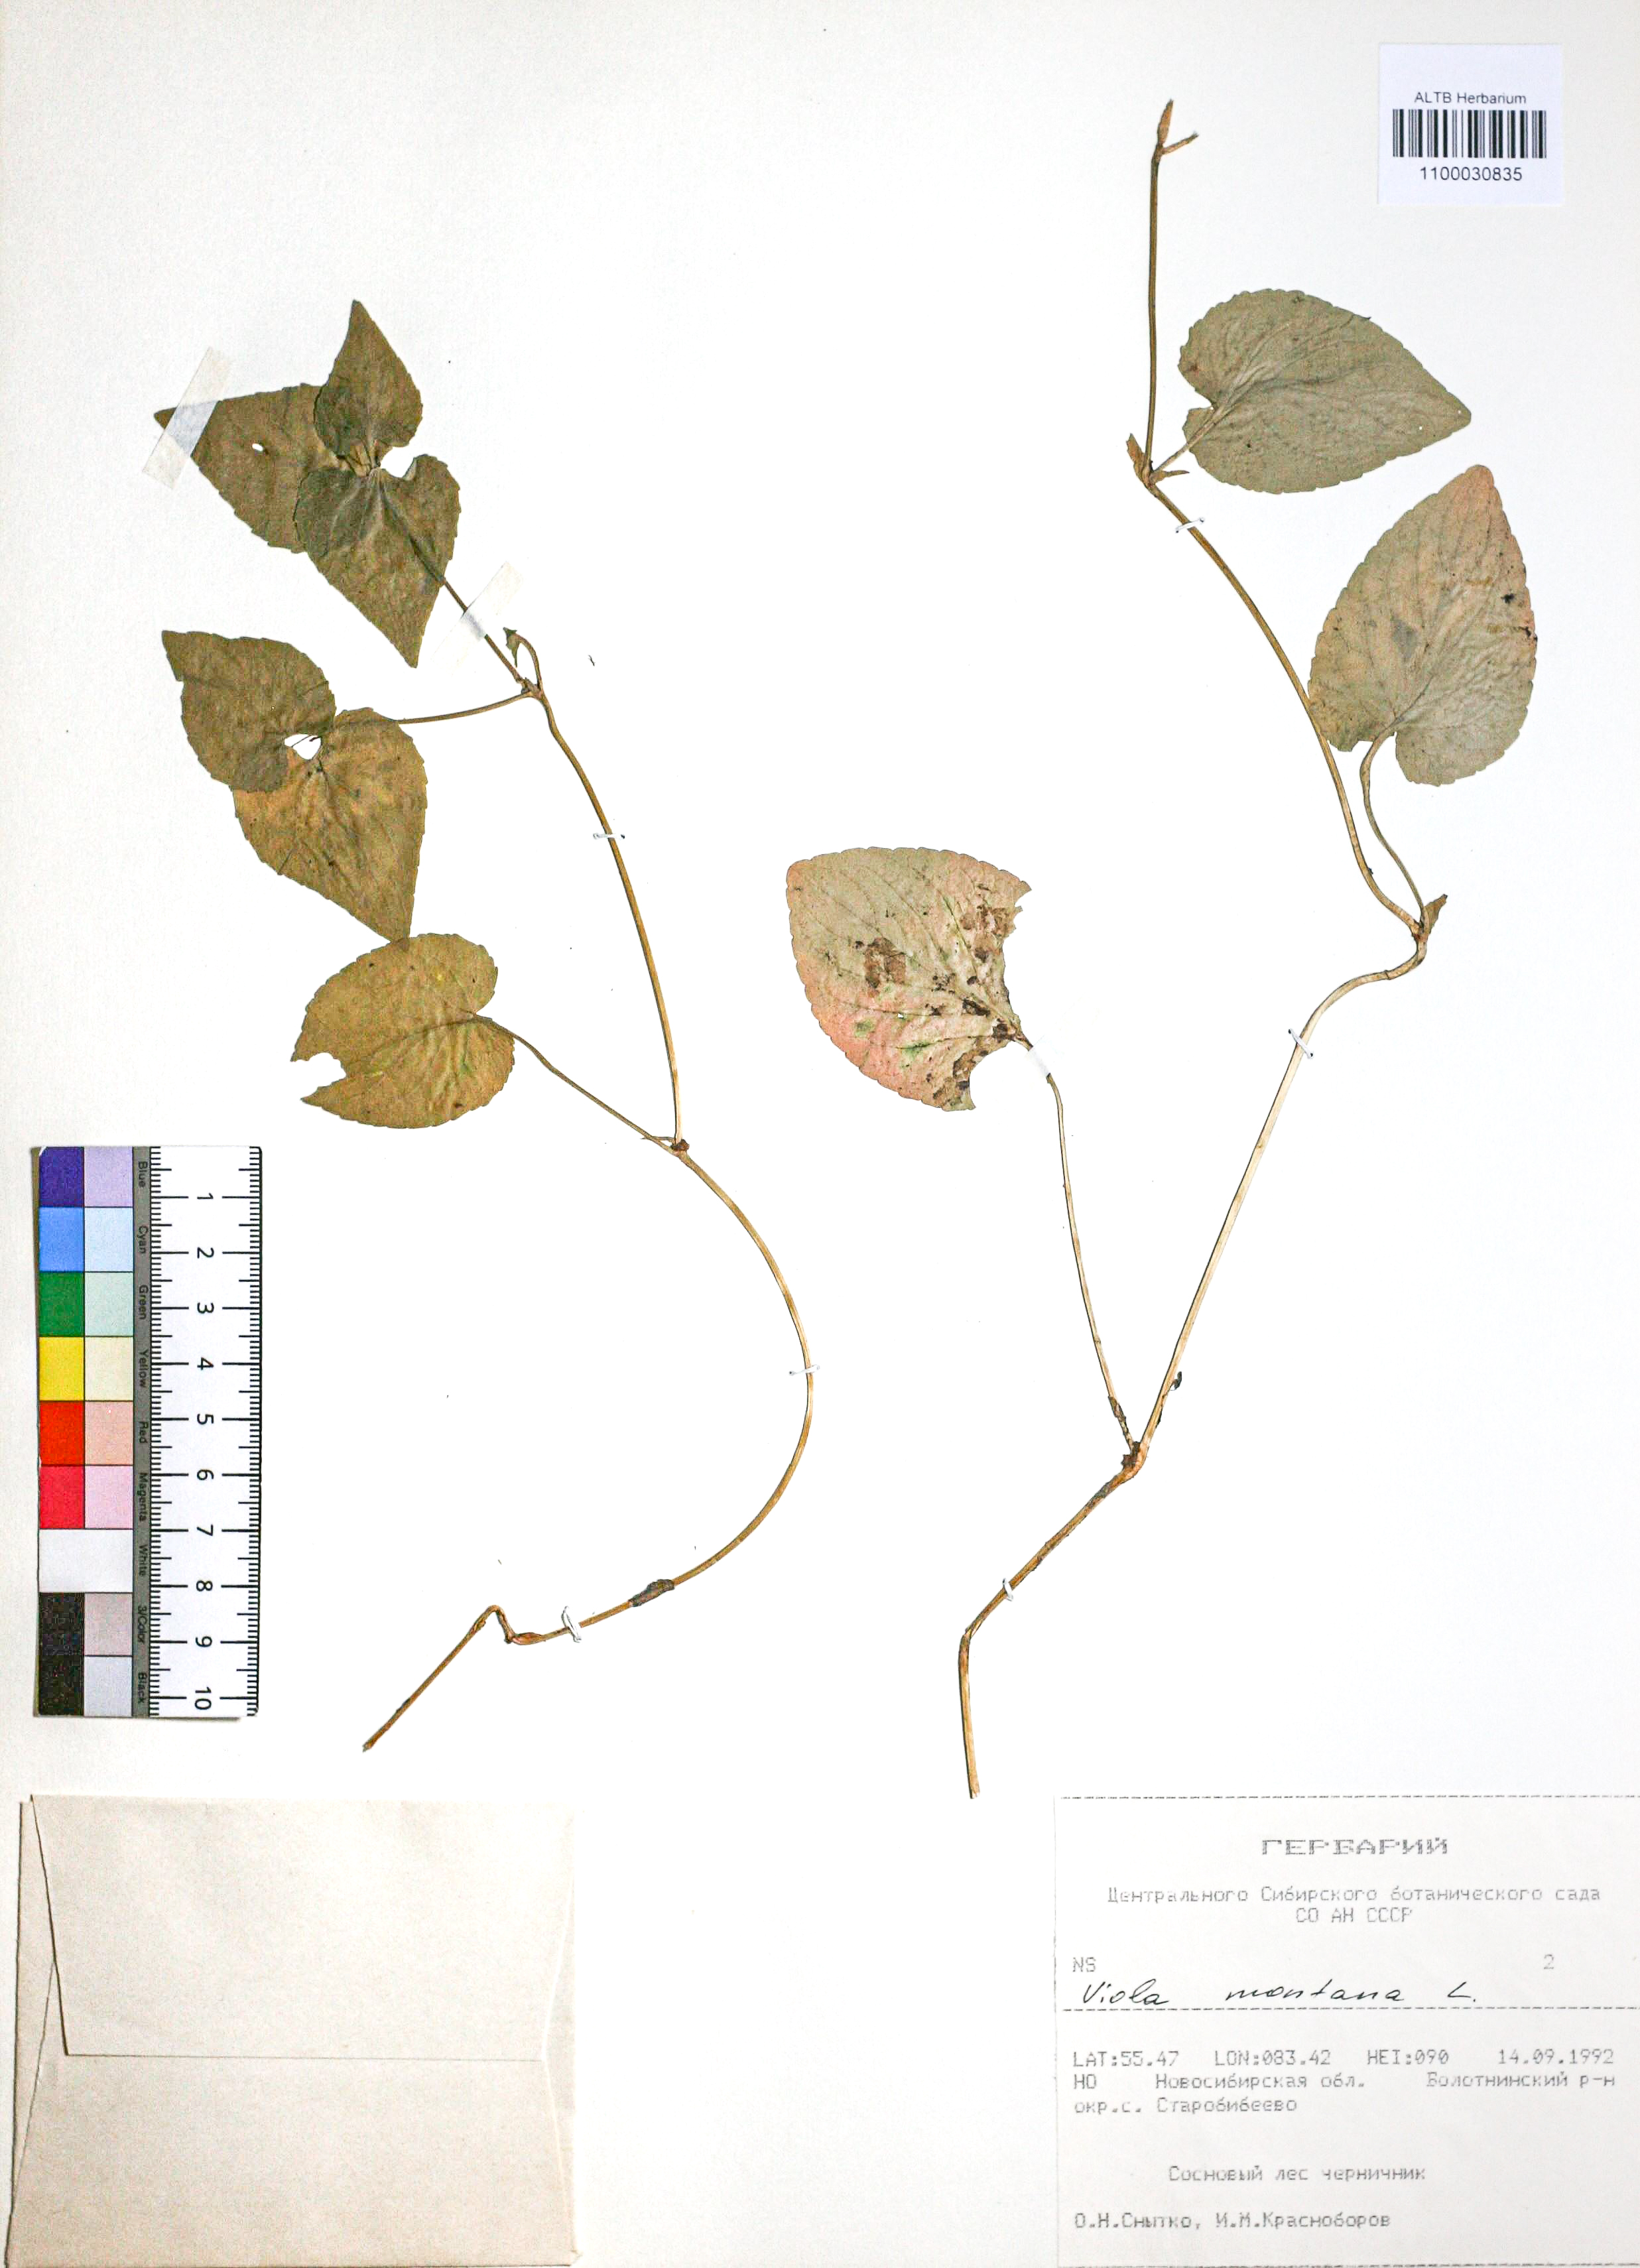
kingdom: Plantae
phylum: Tracheophyta
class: Magnoliopsida
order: Malpighiales
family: Violaceae
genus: Viola
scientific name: Viola ruppii
